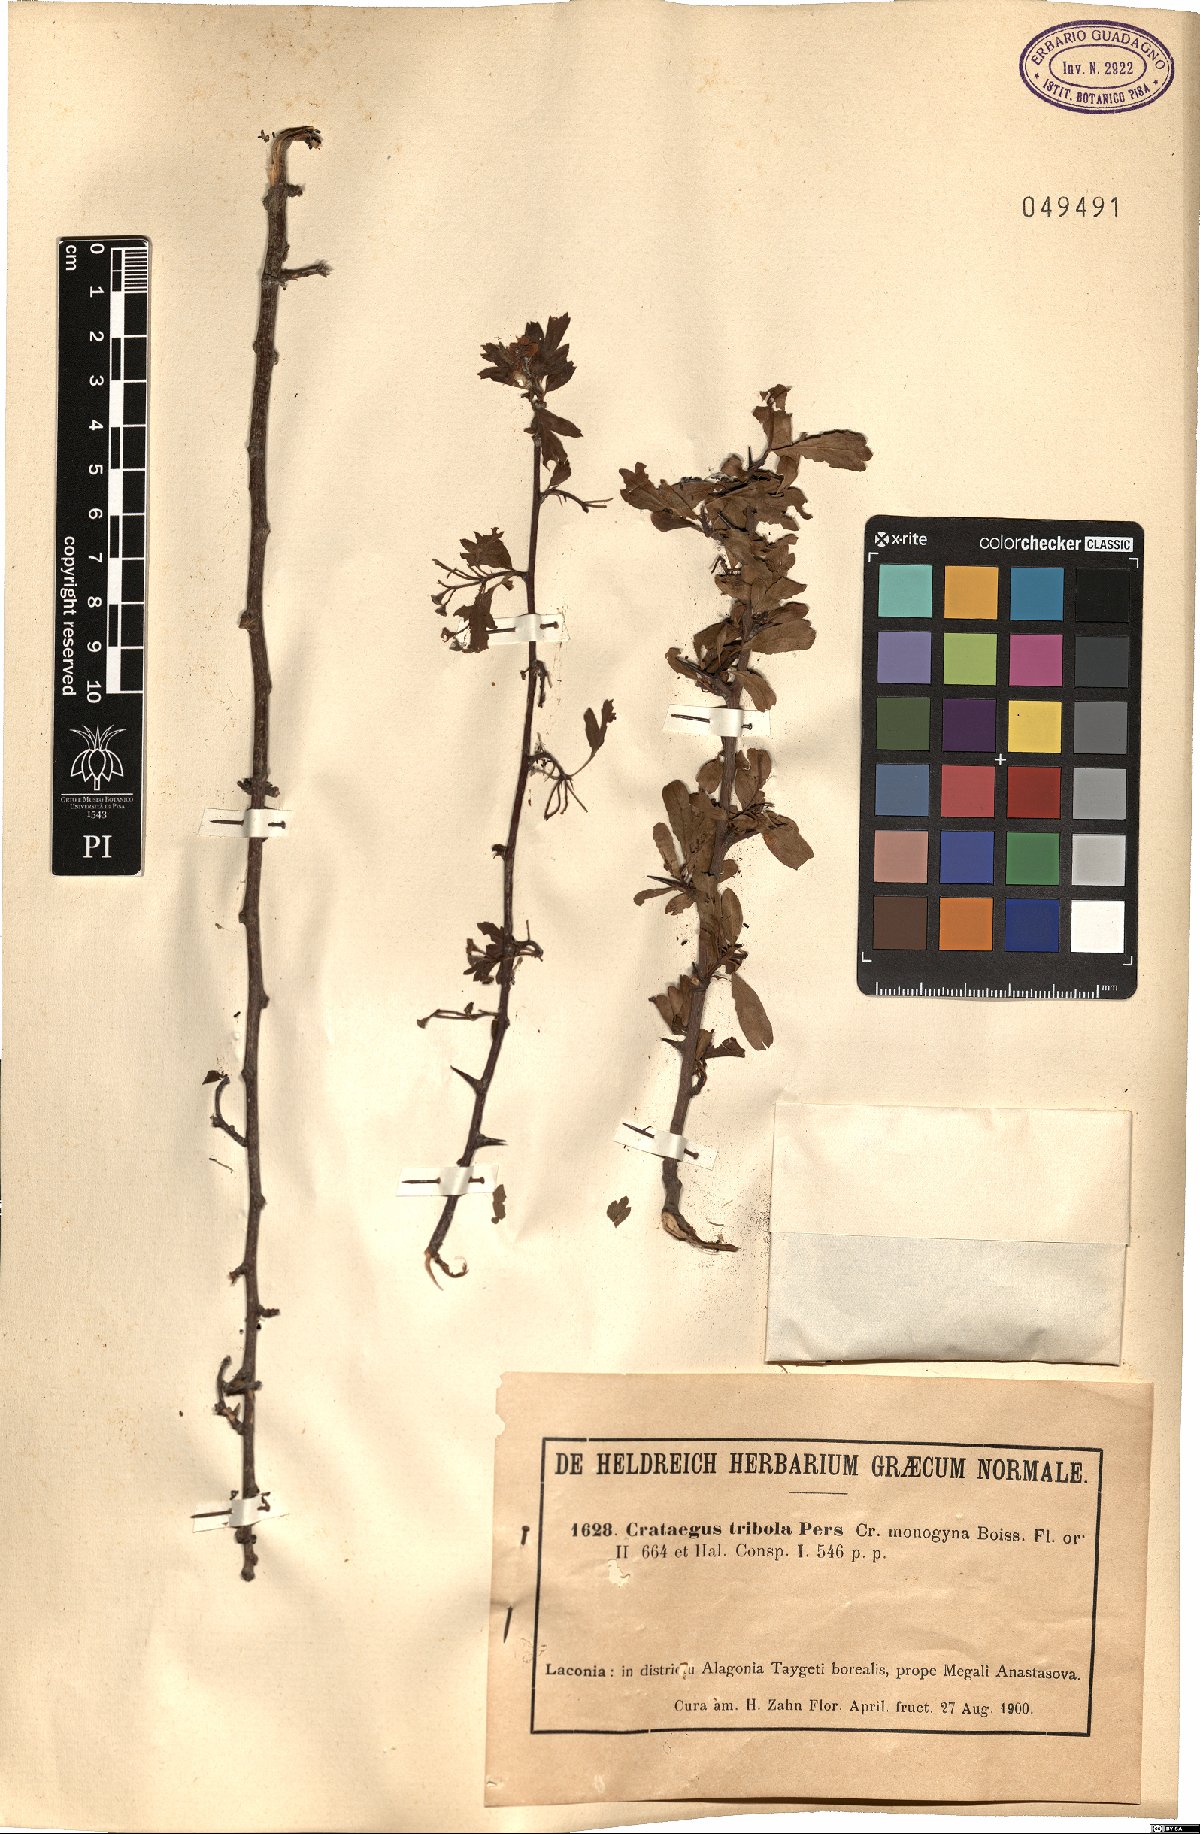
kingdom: Plantae
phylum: Tracheophyta
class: Magnoliopsida
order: Rosales
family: Rosaceae
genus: Crataegus
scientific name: Crataegus pycnoloba
